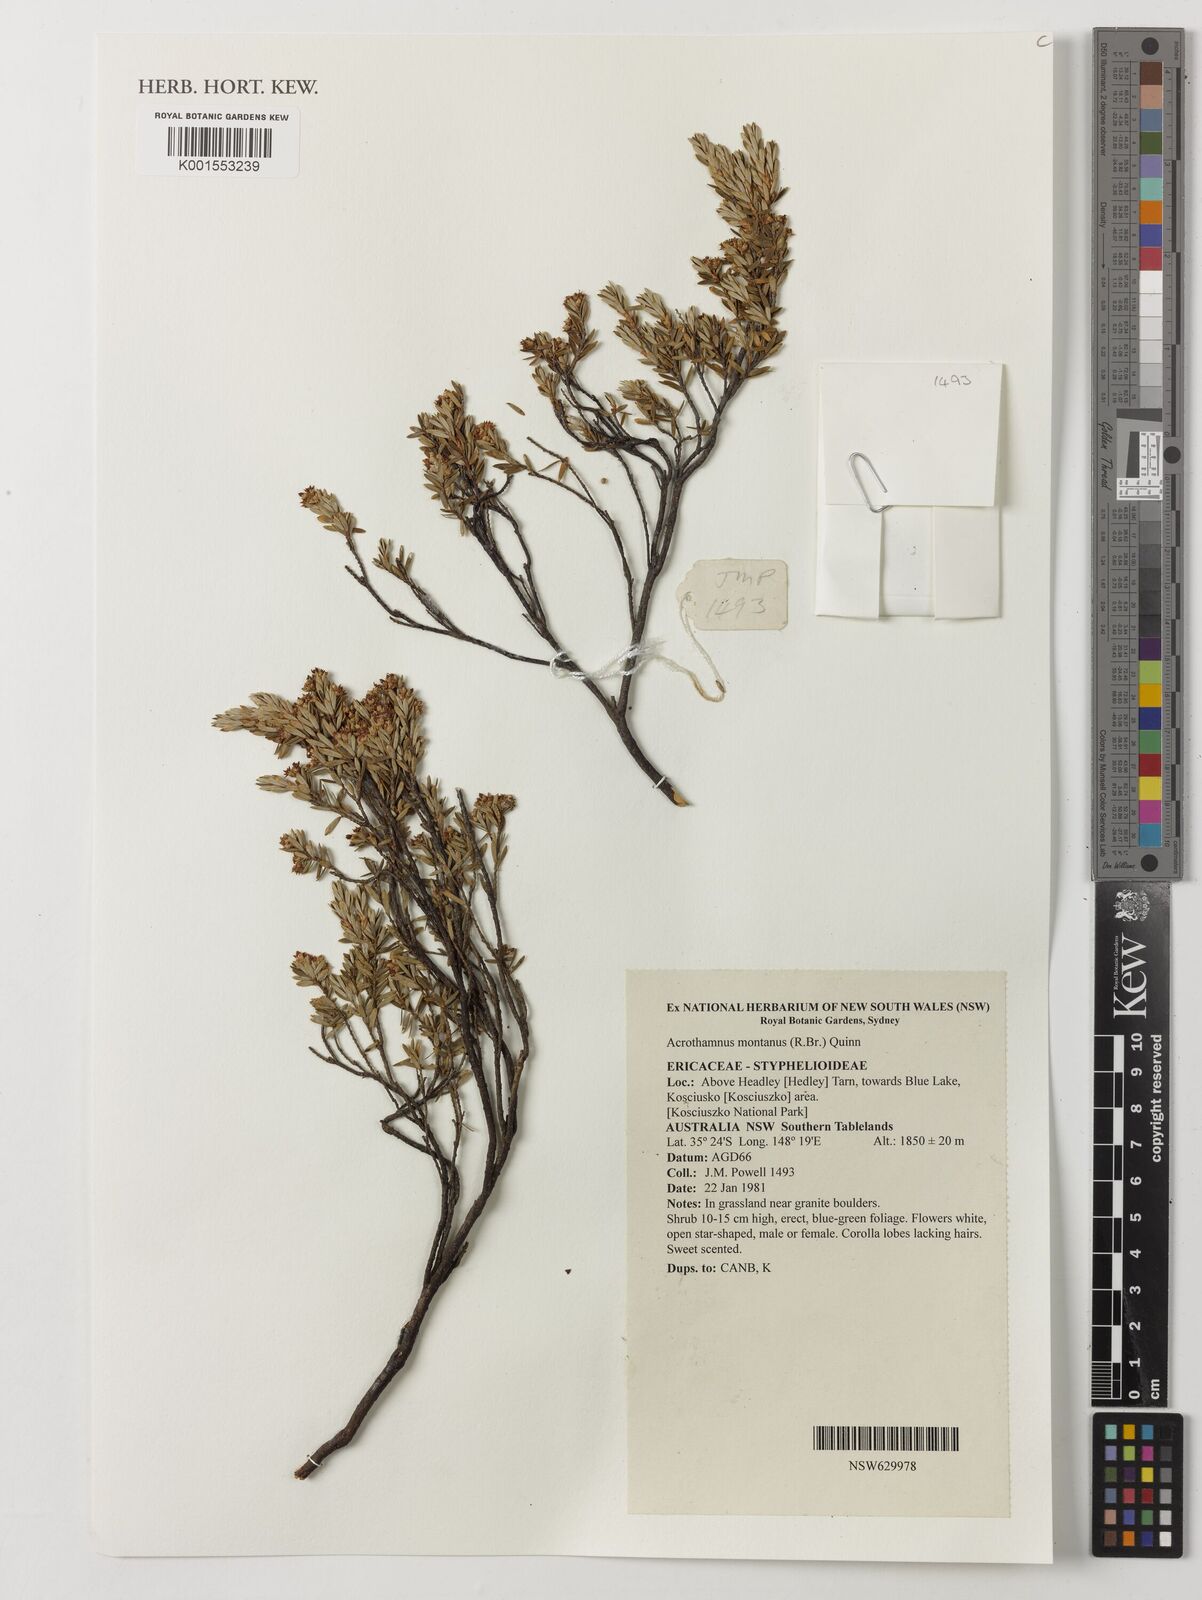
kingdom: Plantae
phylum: Tracheophyta
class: Magnoliopsida
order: Ericales
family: Ericaceae
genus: Acrothamnus
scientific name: Acrothamnus montanus
